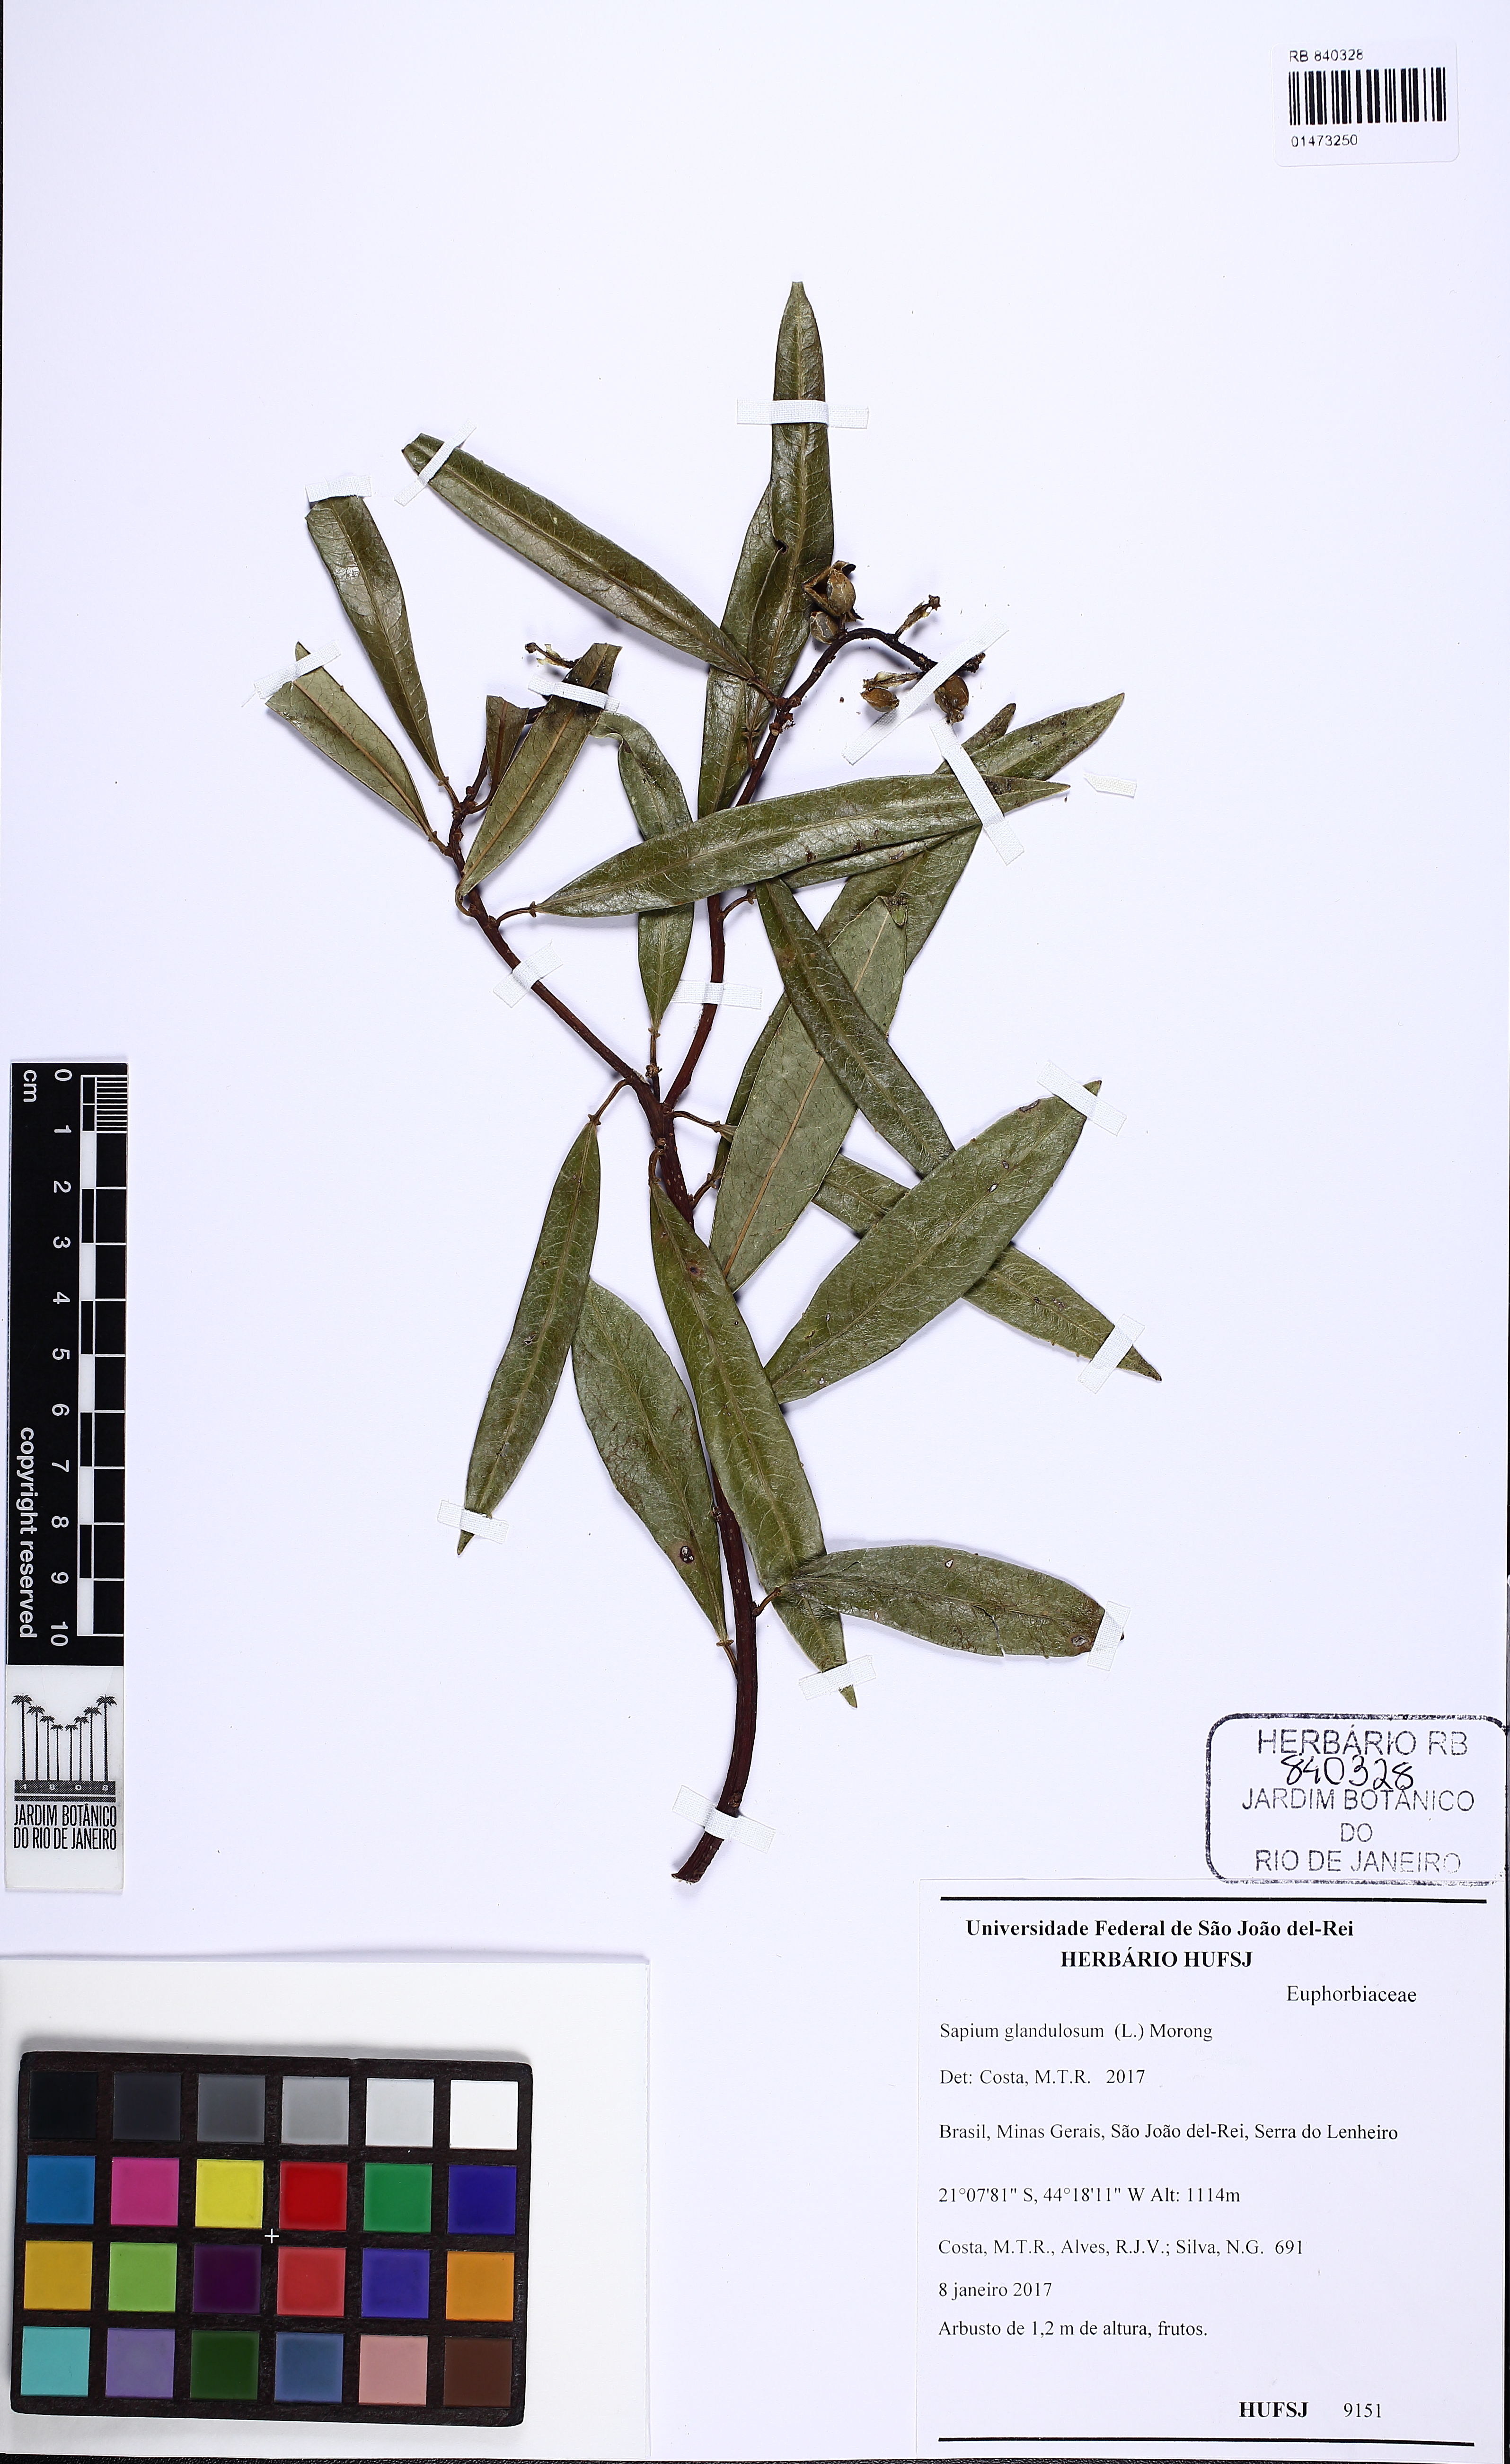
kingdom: Plantae
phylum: Tracheophyta
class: Magnoliopsida
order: Malpighiales
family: Euphorbiaceae
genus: Sapium
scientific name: Sapium glandulosum
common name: Milktree
